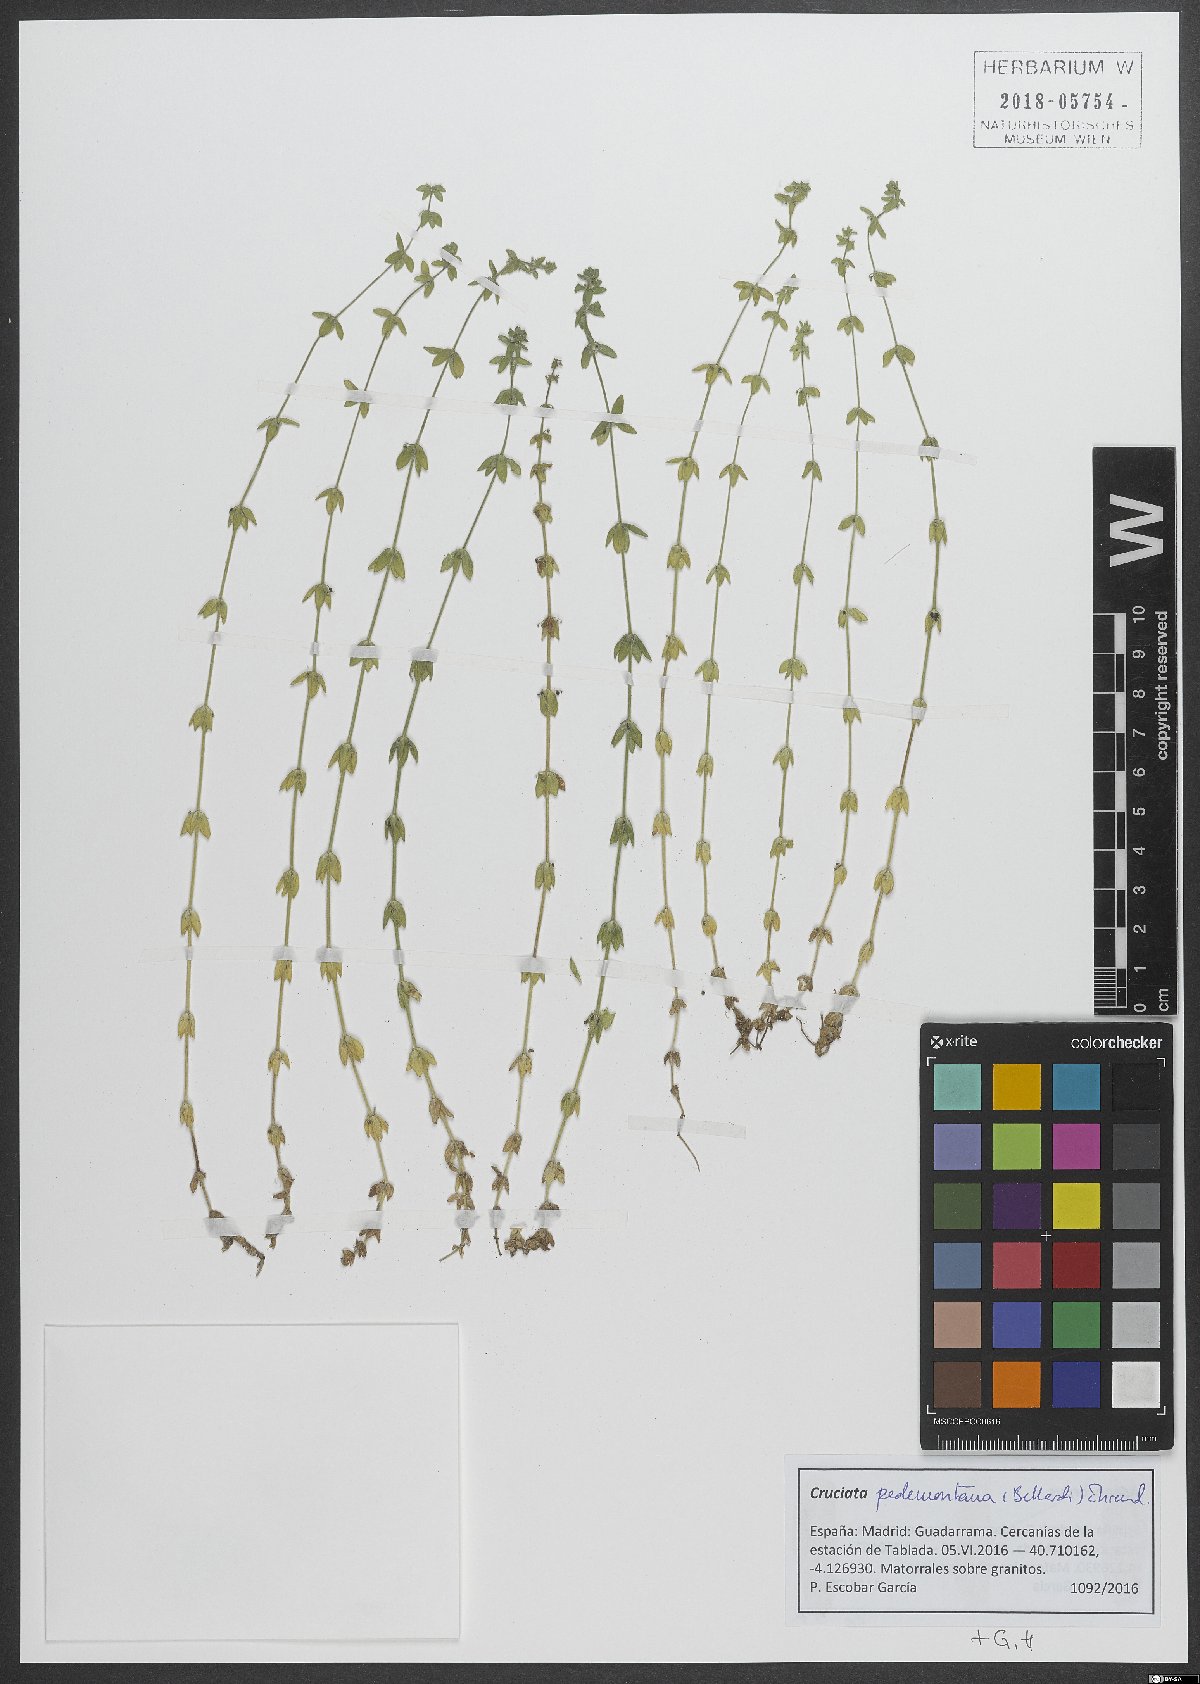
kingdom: Plantae
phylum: Tracheophyta
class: Magnoliopsida
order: Gentianales
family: Rubiaceae
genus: Cruciata
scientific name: Cruciata pedemontana
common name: Piedmont bedstraw
